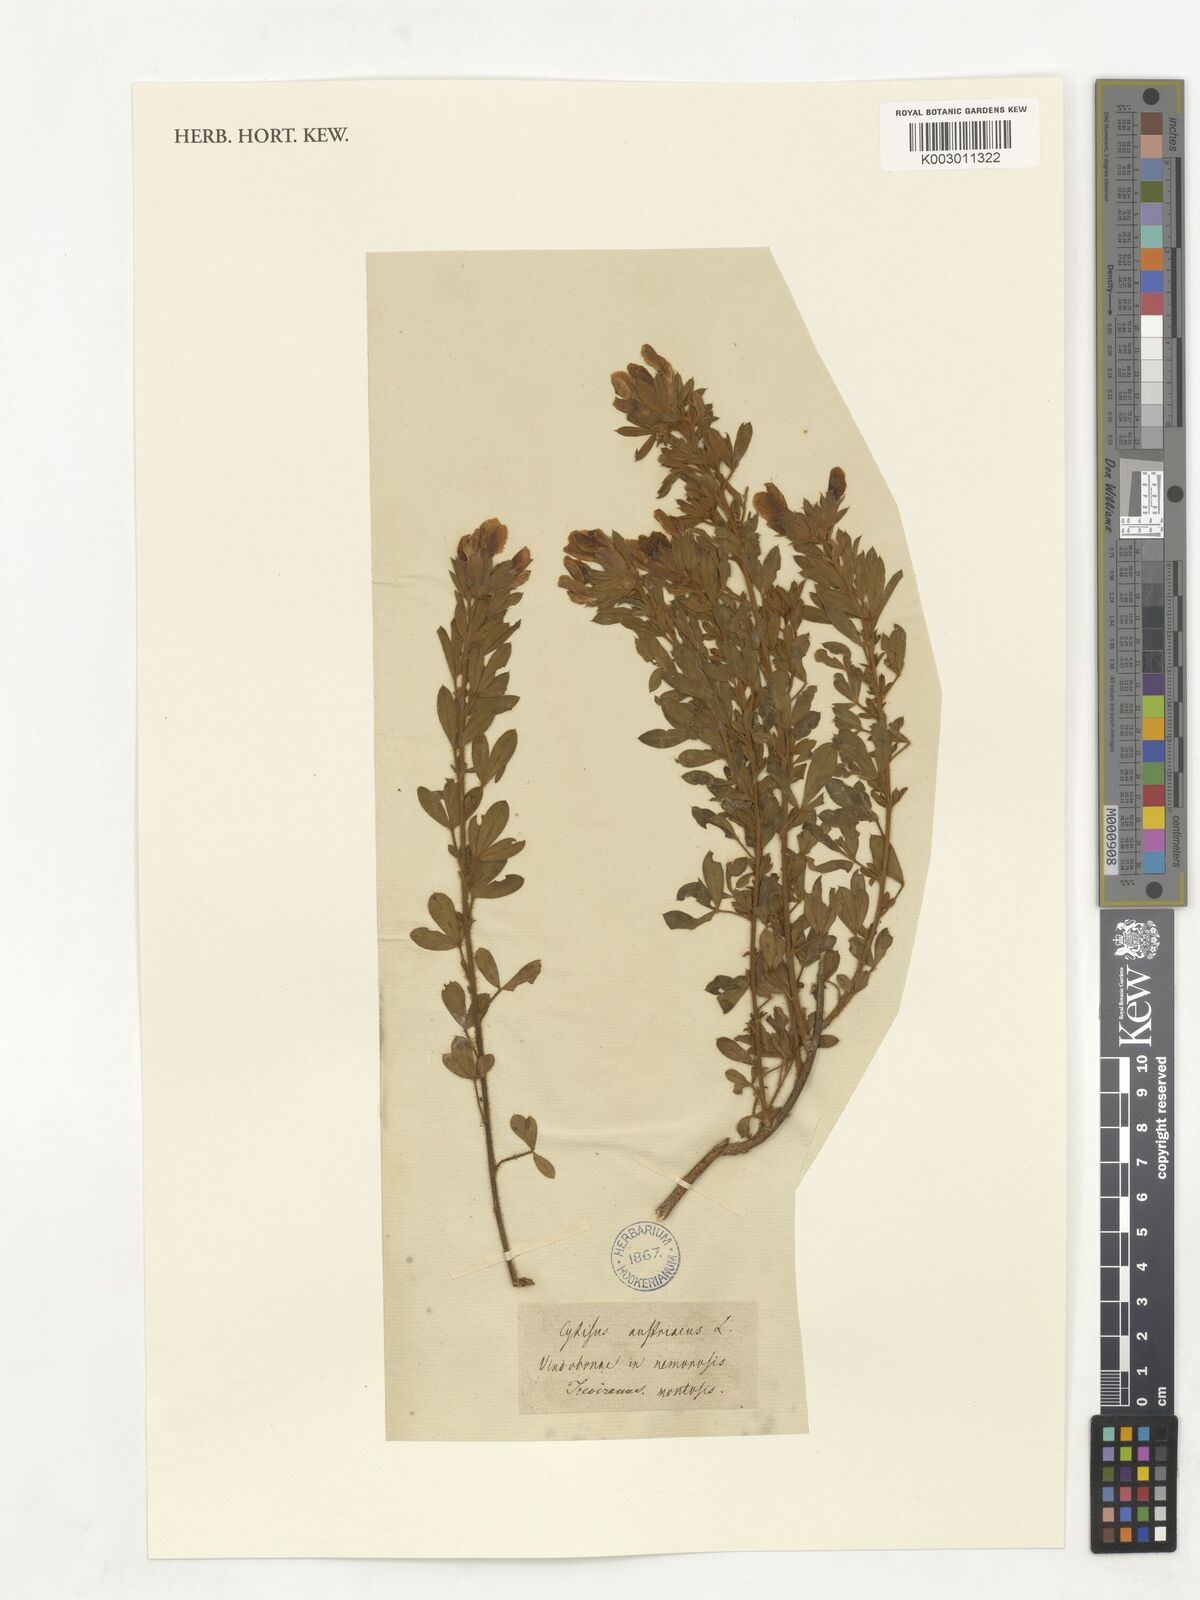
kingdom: Plantae
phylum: Tracheophyta
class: Magnoliopsida
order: Fabales
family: Fabaceae
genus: Chamaecytisus
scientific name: Chamaecytisus austriacus
